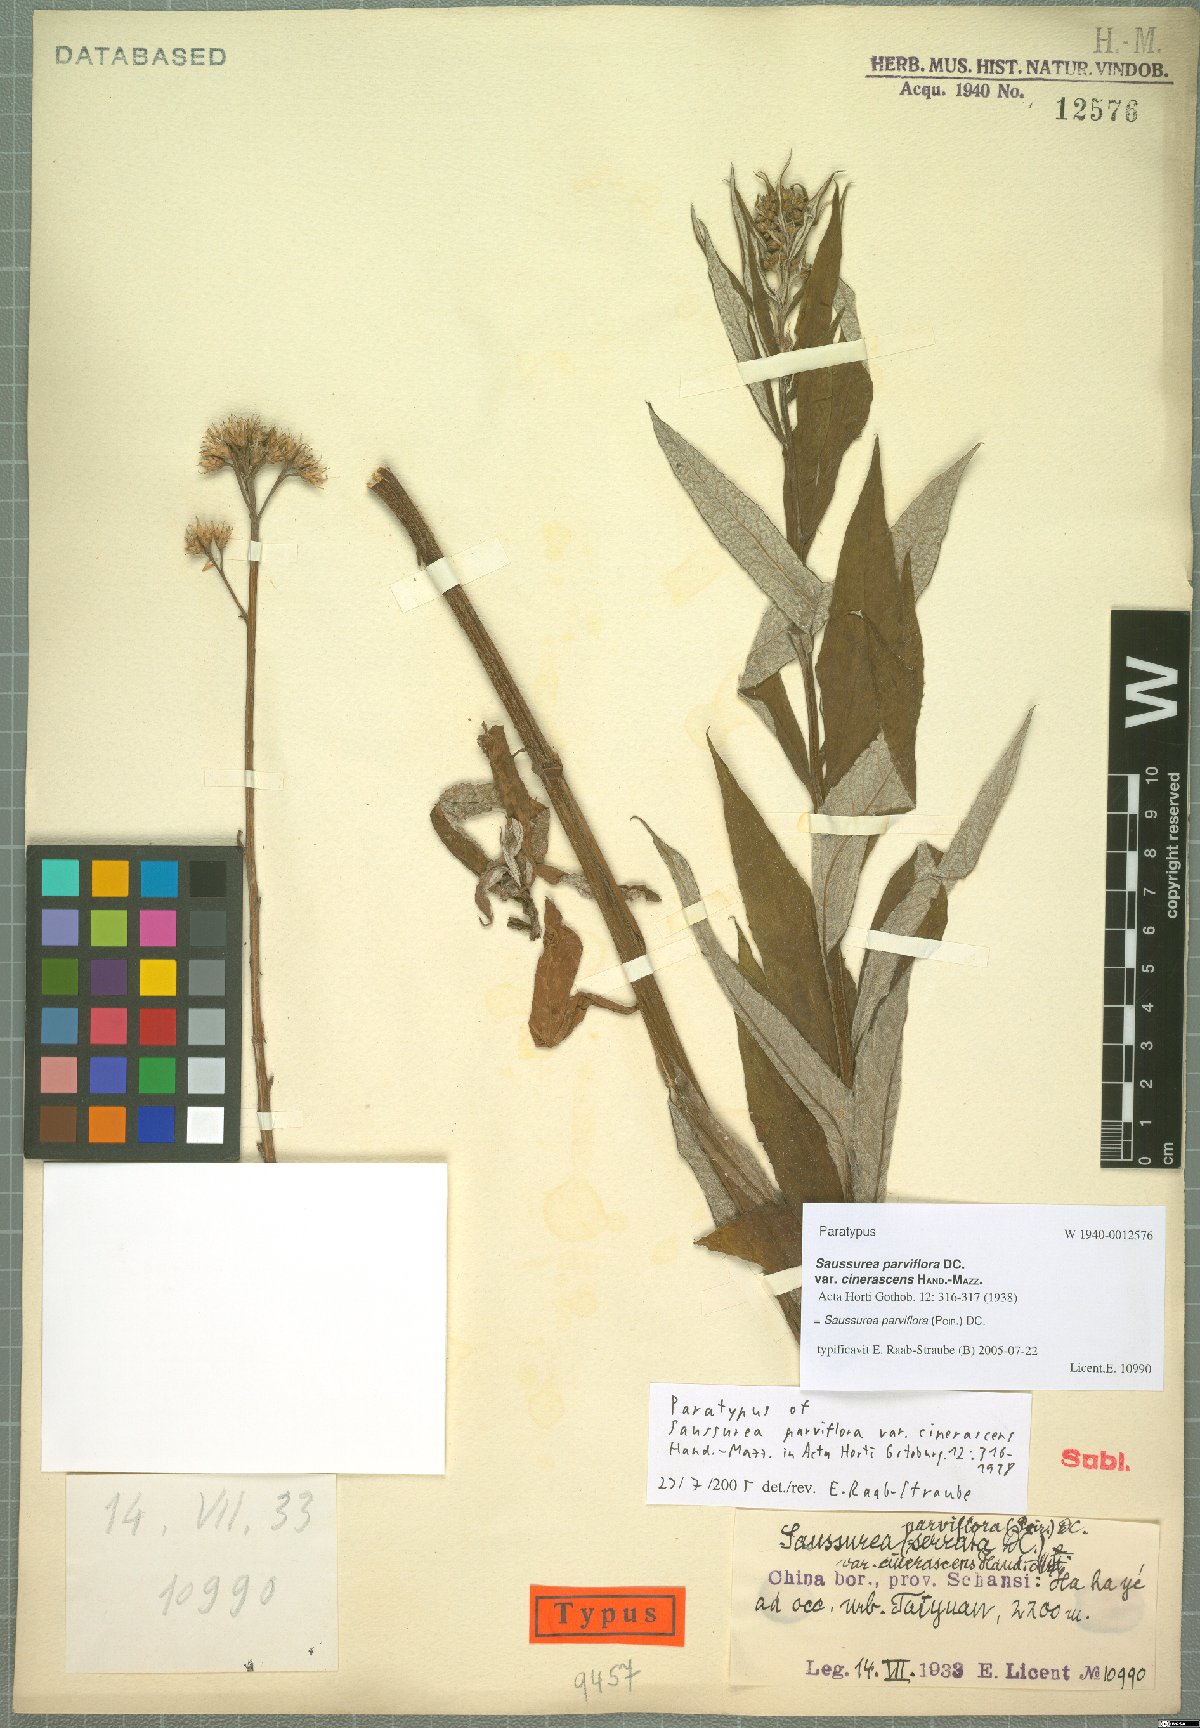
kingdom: Plantae
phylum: Tracheophyta
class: Magnoliopsida
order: Asterales
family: Asteraceae
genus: Saussurea
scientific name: Saussurea parviflora
